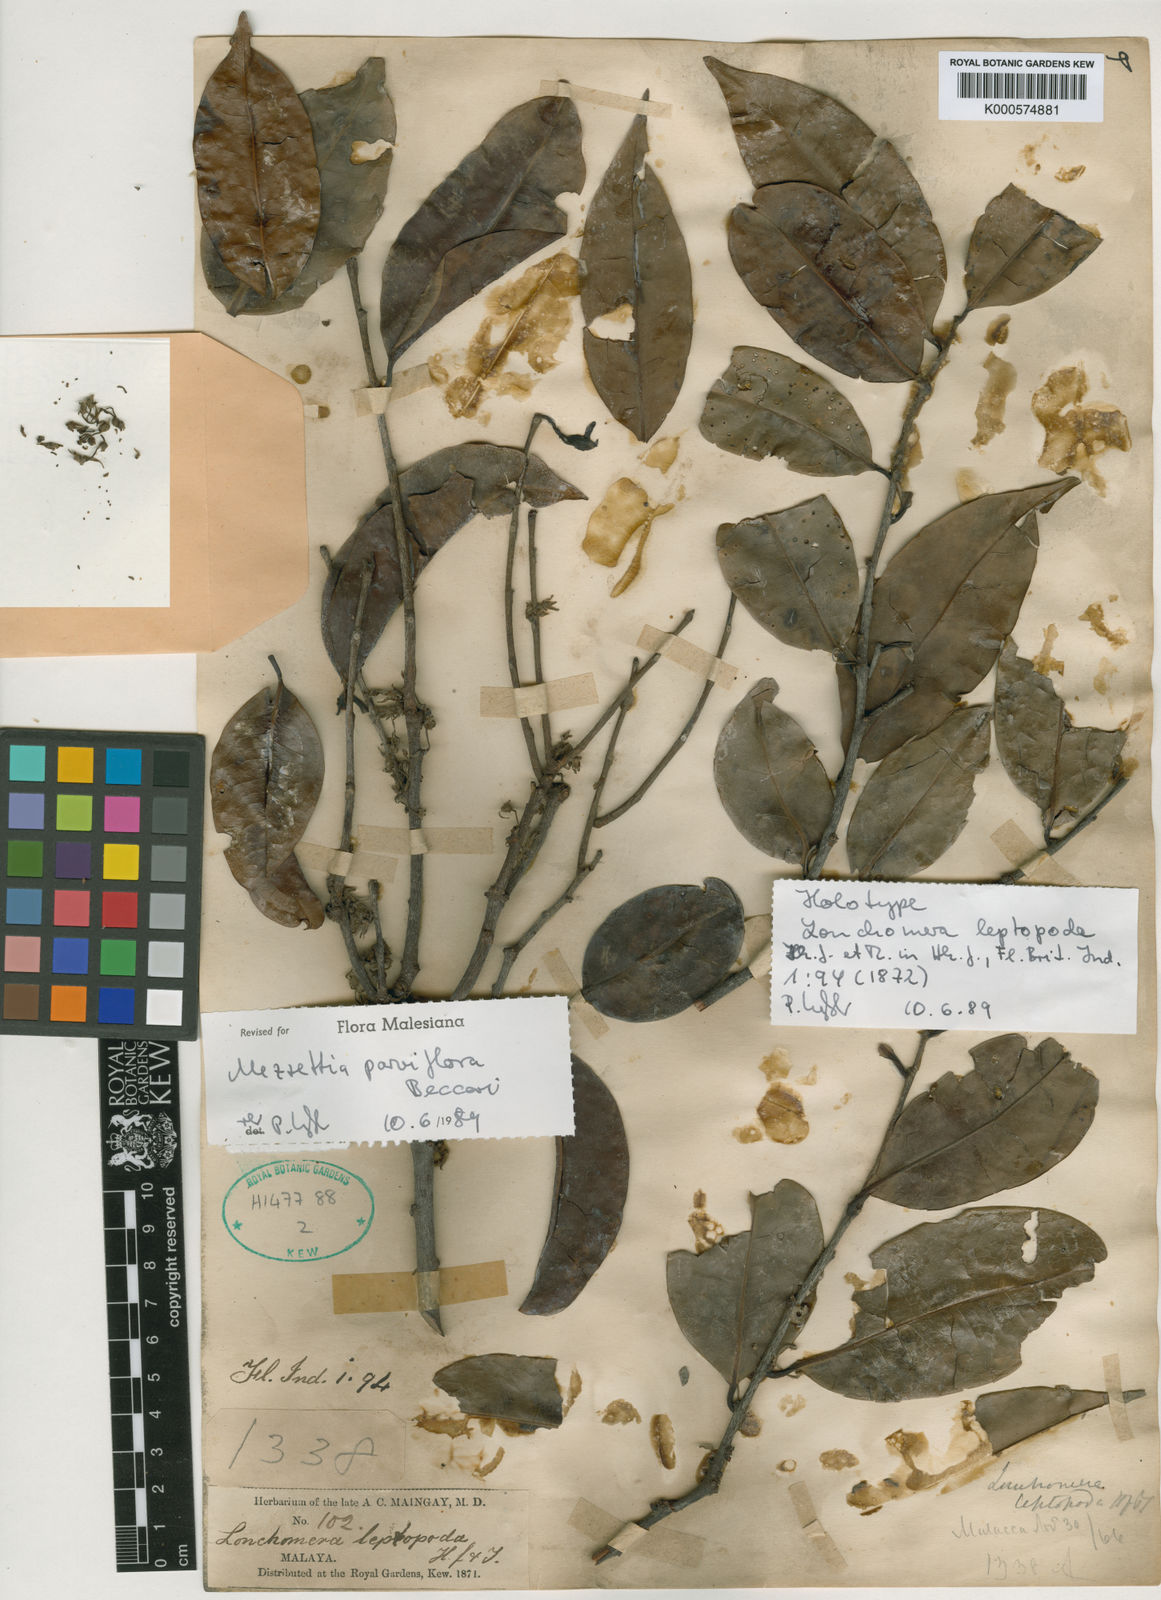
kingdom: Plantae
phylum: Tracheophyta
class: Magnoliopsida
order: Magnoliales
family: Annonaceae
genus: Mezzettia
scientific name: Mezzettia parviflora
